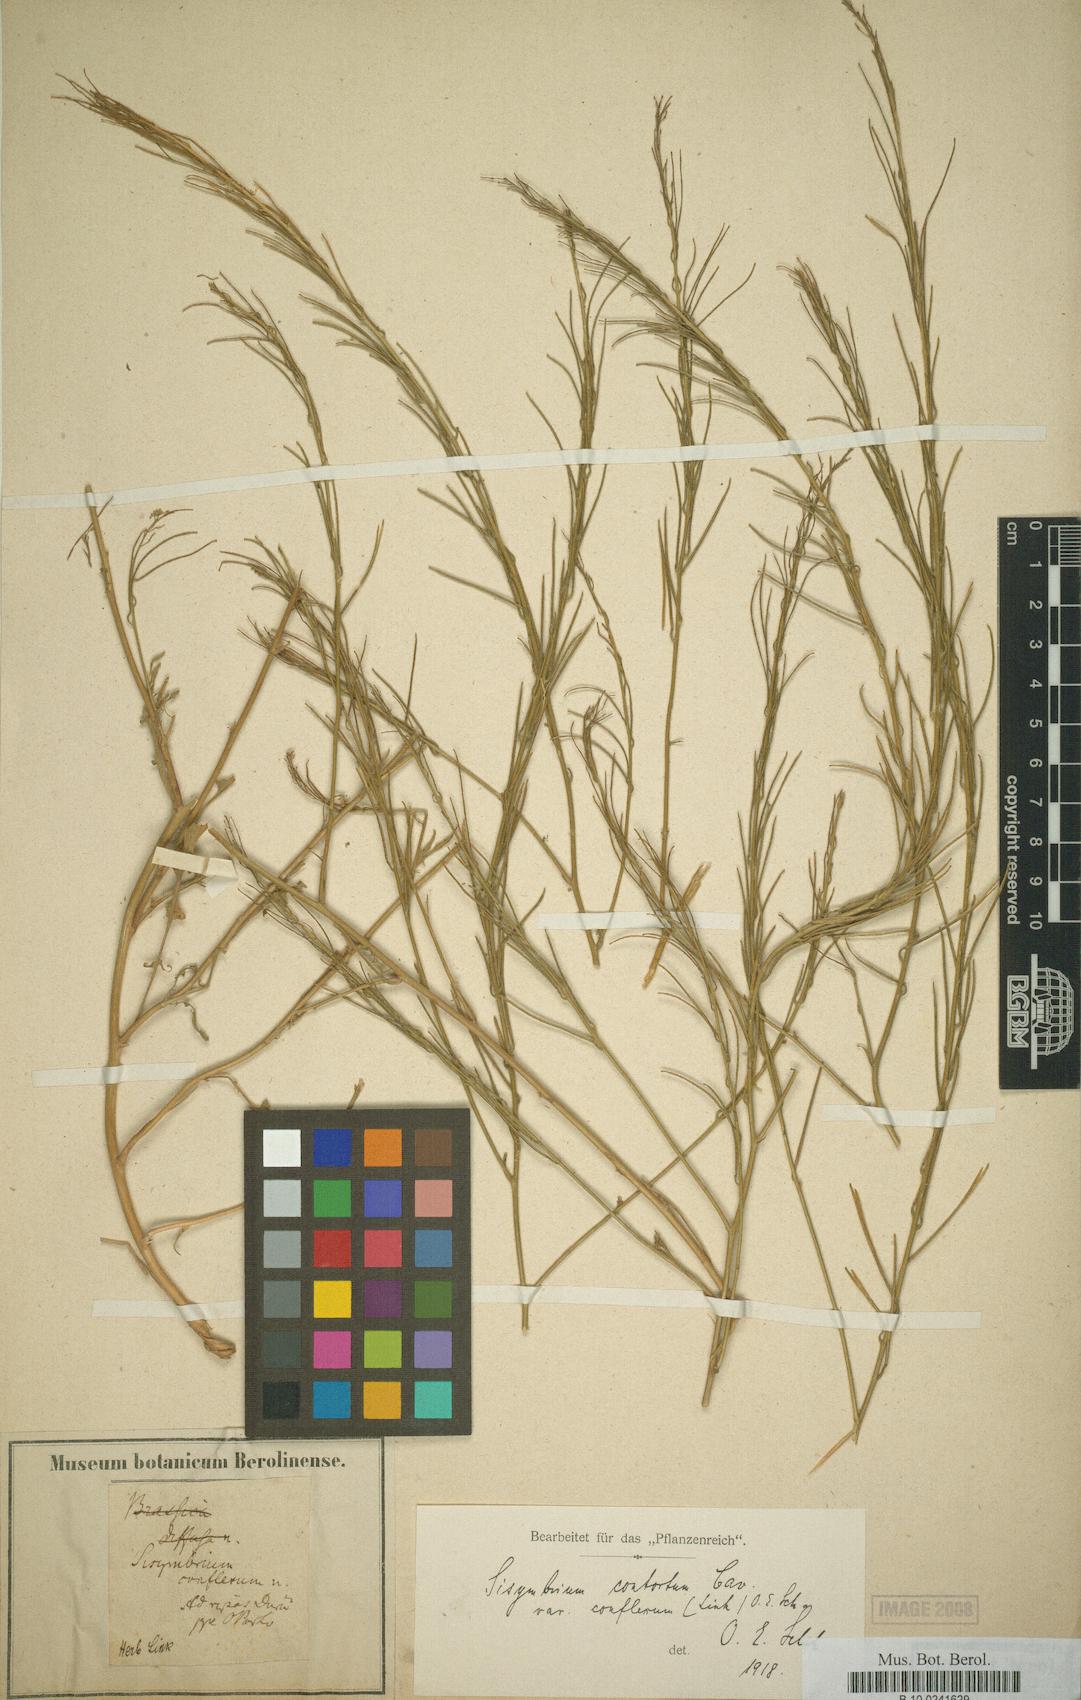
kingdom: Plantae
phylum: Tracheophyta
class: Magnoliopsida
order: Brassicales
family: Brassicaceae
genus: Sisymbrium
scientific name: Sisymbrium hispanicum
